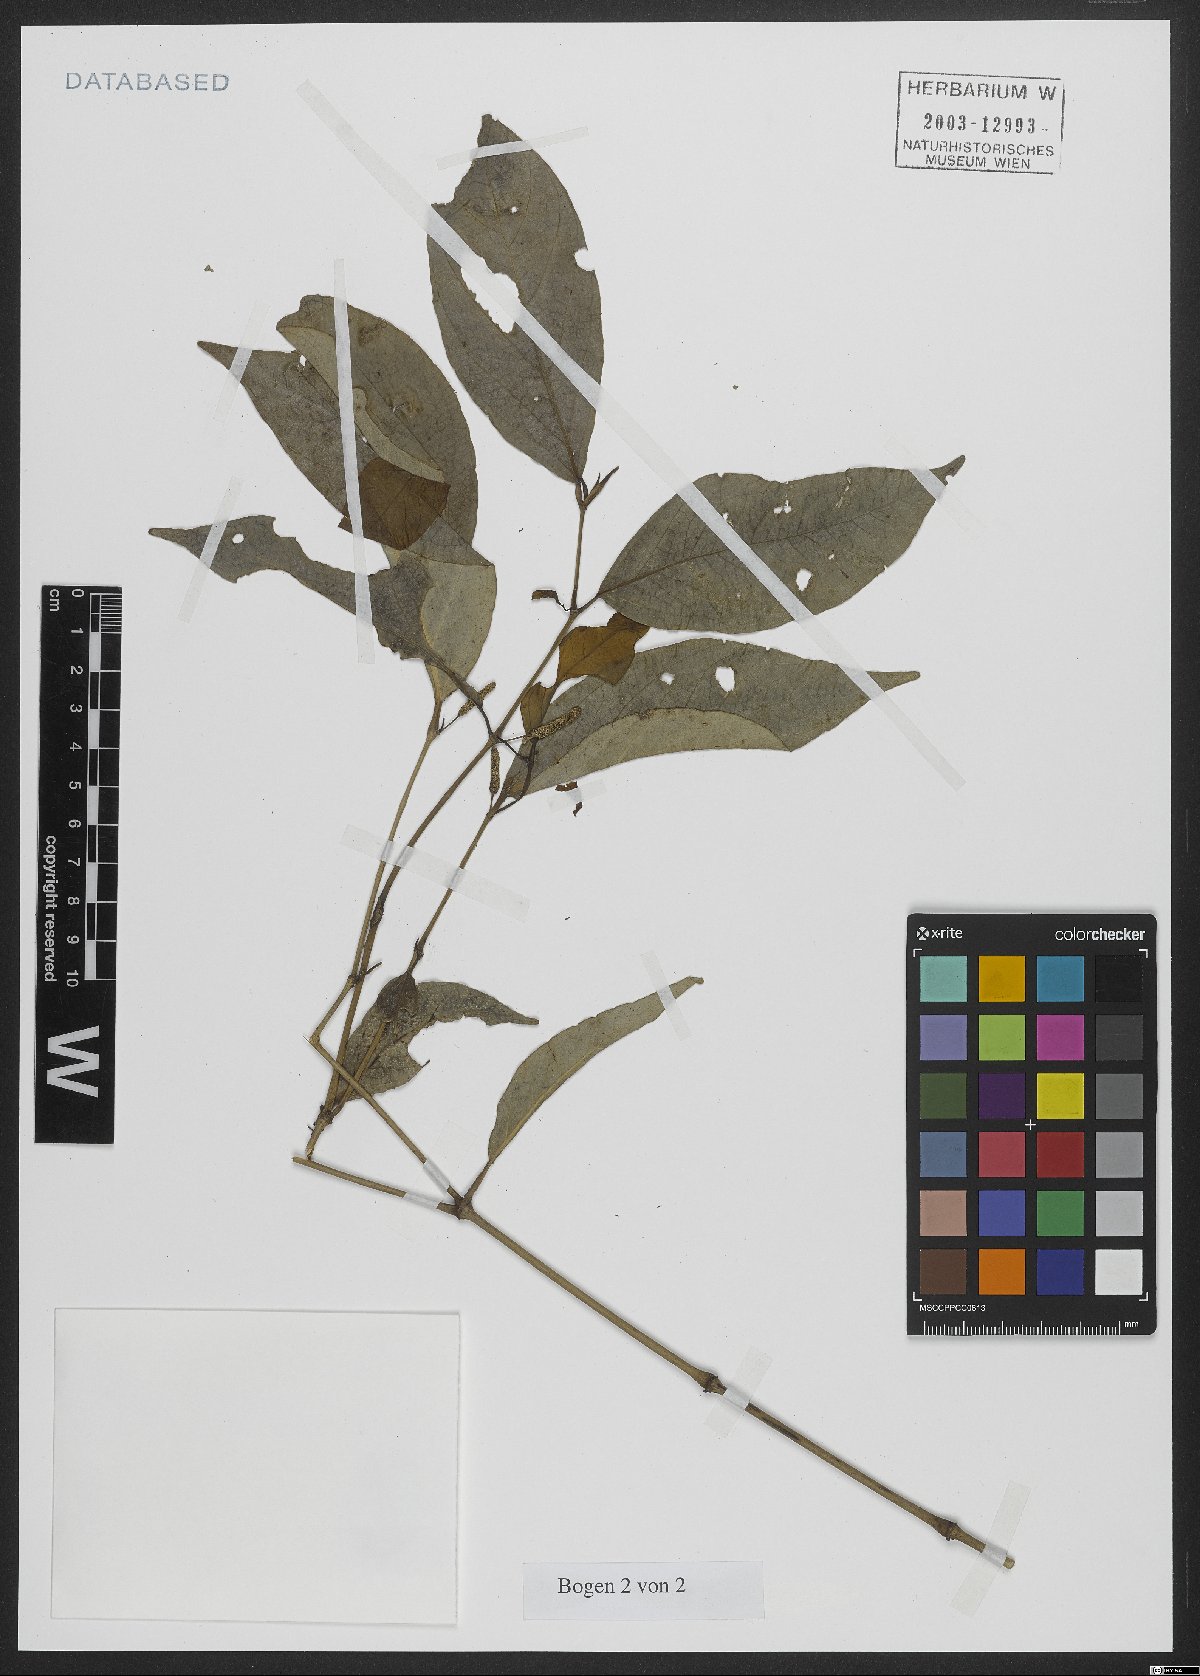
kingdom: Plantae
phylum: Tracheophyta
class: Magnoliopsida
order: Piperales
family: Piperaceae
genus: Piper
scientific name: Piper xylosteoides
